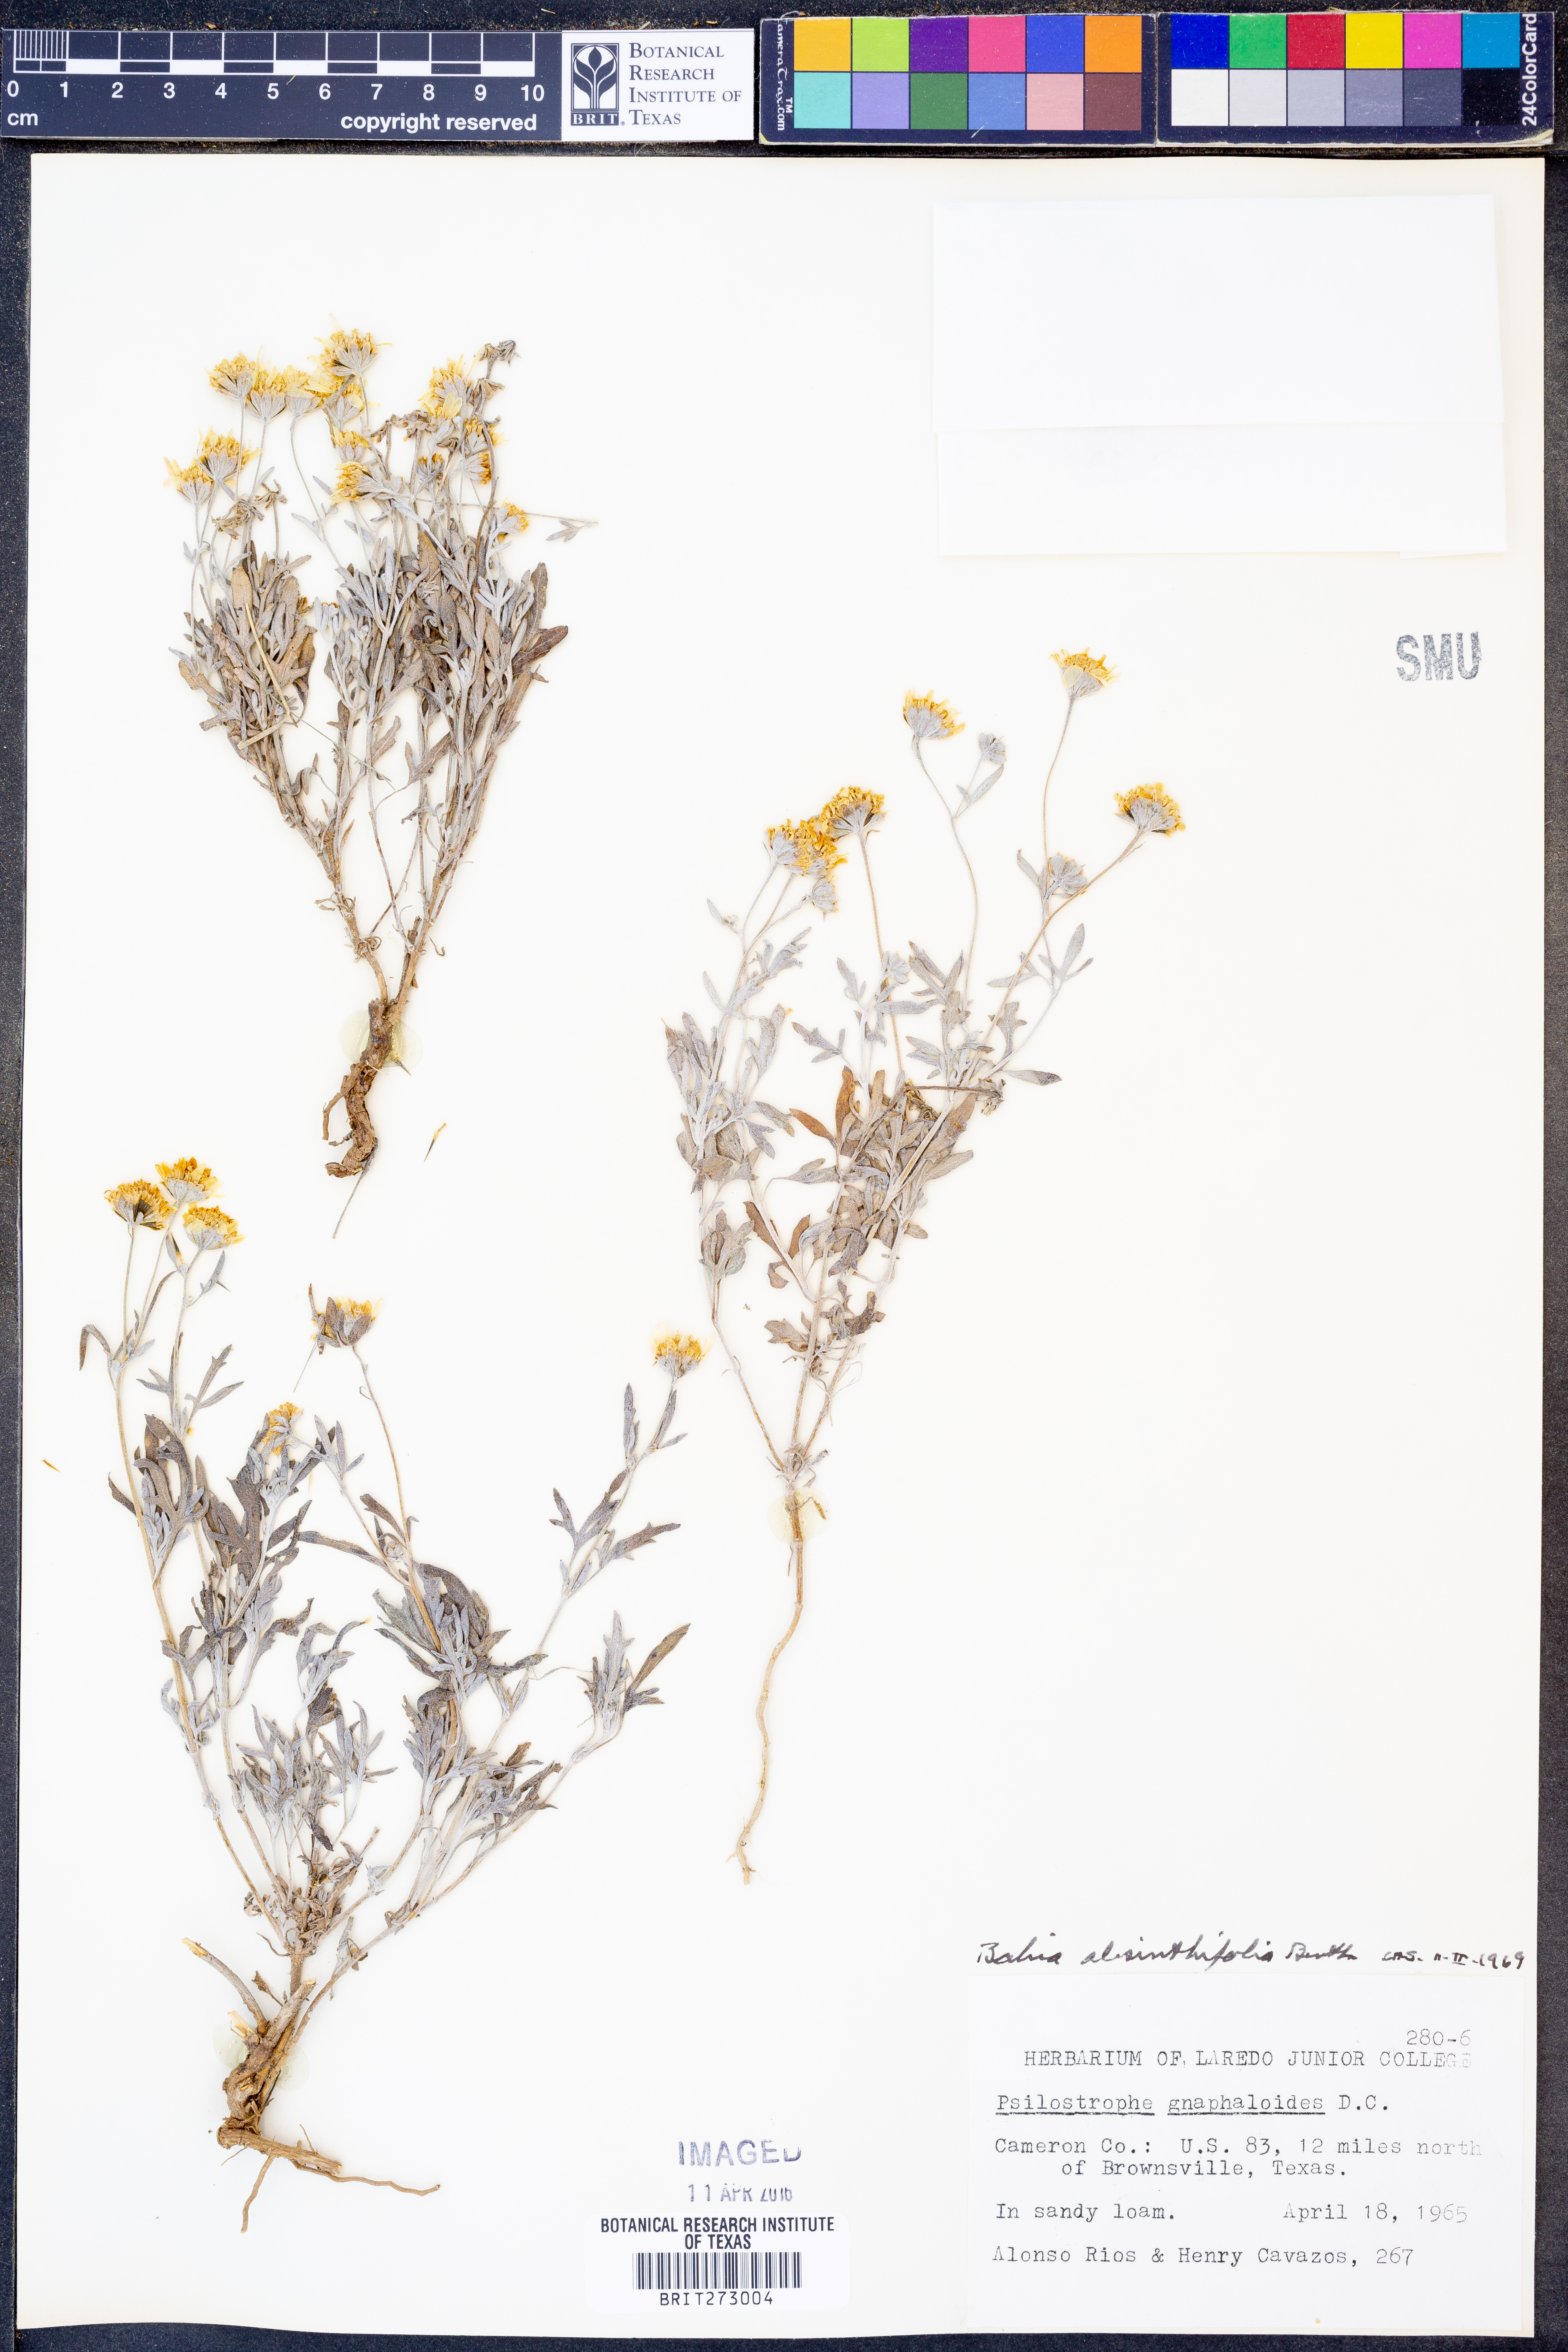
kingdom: Plantae
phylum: Tracheophyta
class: Magnoliopsida
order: Asterales
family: Asteraceae
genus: Picradeniopsis
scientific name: Picradeniopsis absinthifolia
